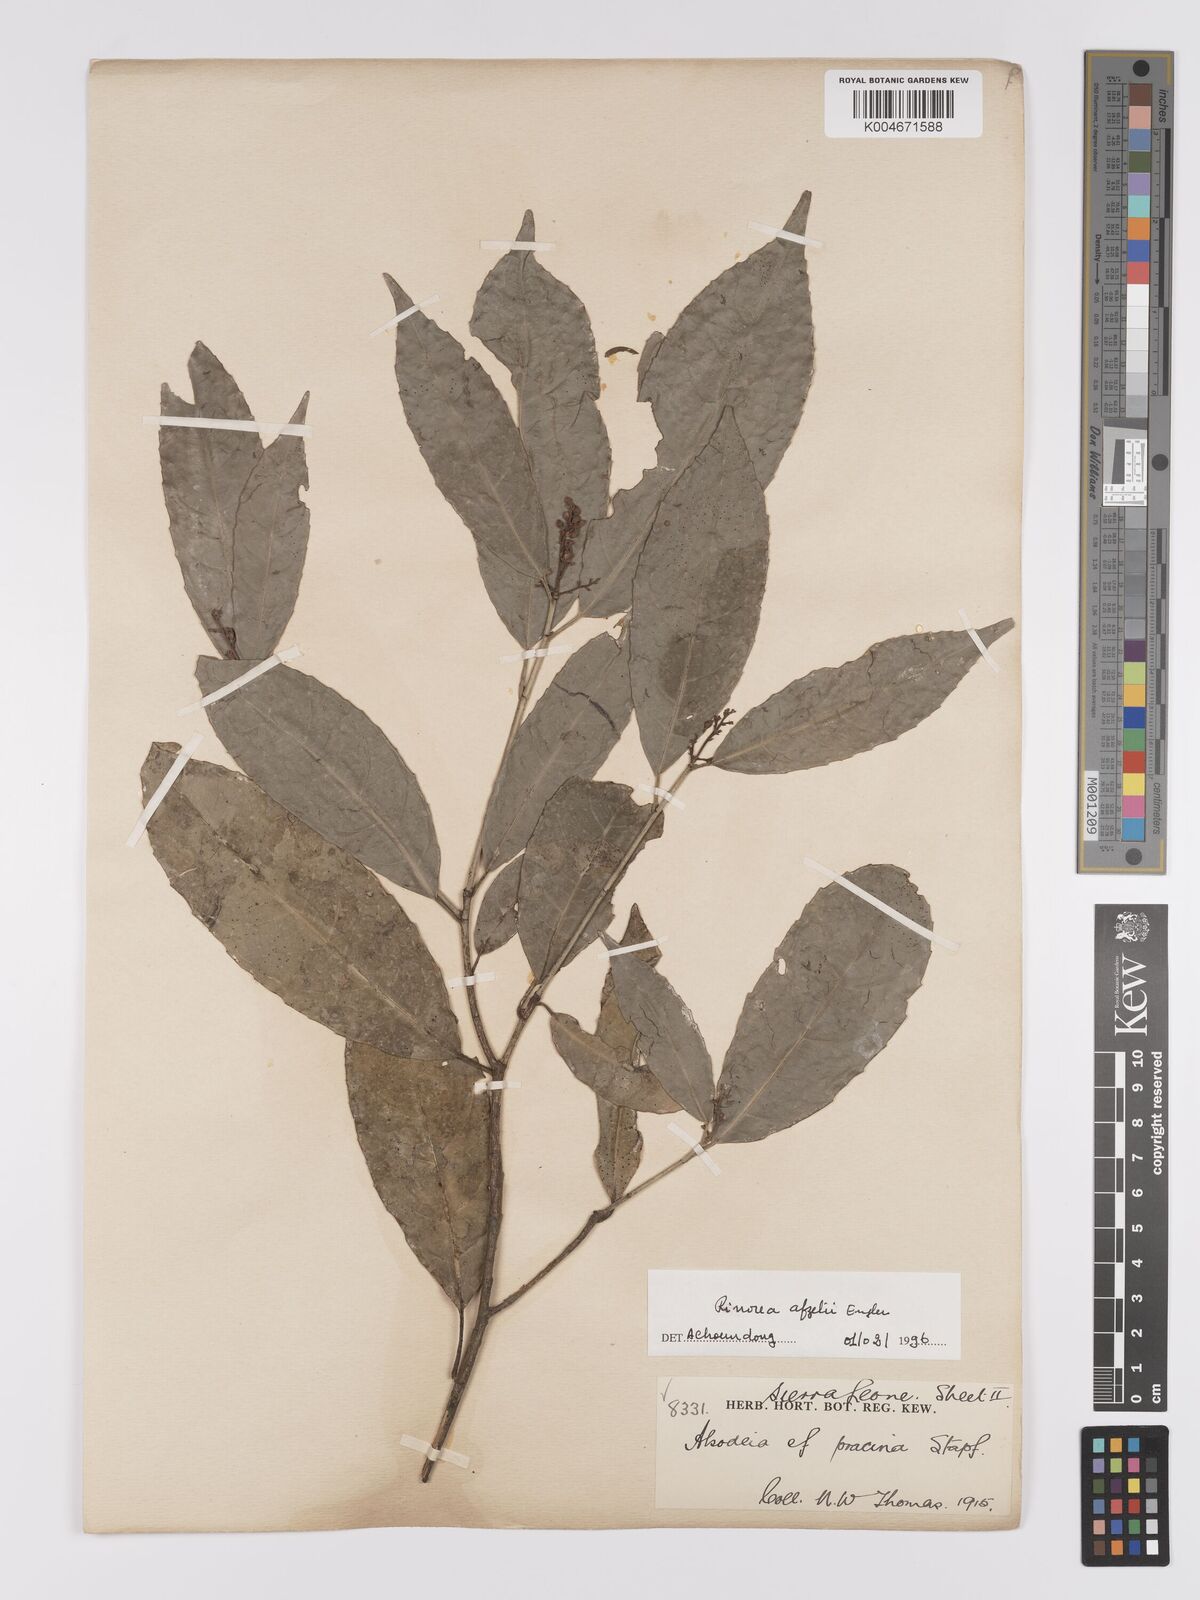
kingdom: Plantae
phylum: Tracheophyta
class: Magnoliopsida
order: Malpighiales
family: Violaceae
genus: Rinorea
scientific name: Rinorea afzelii
